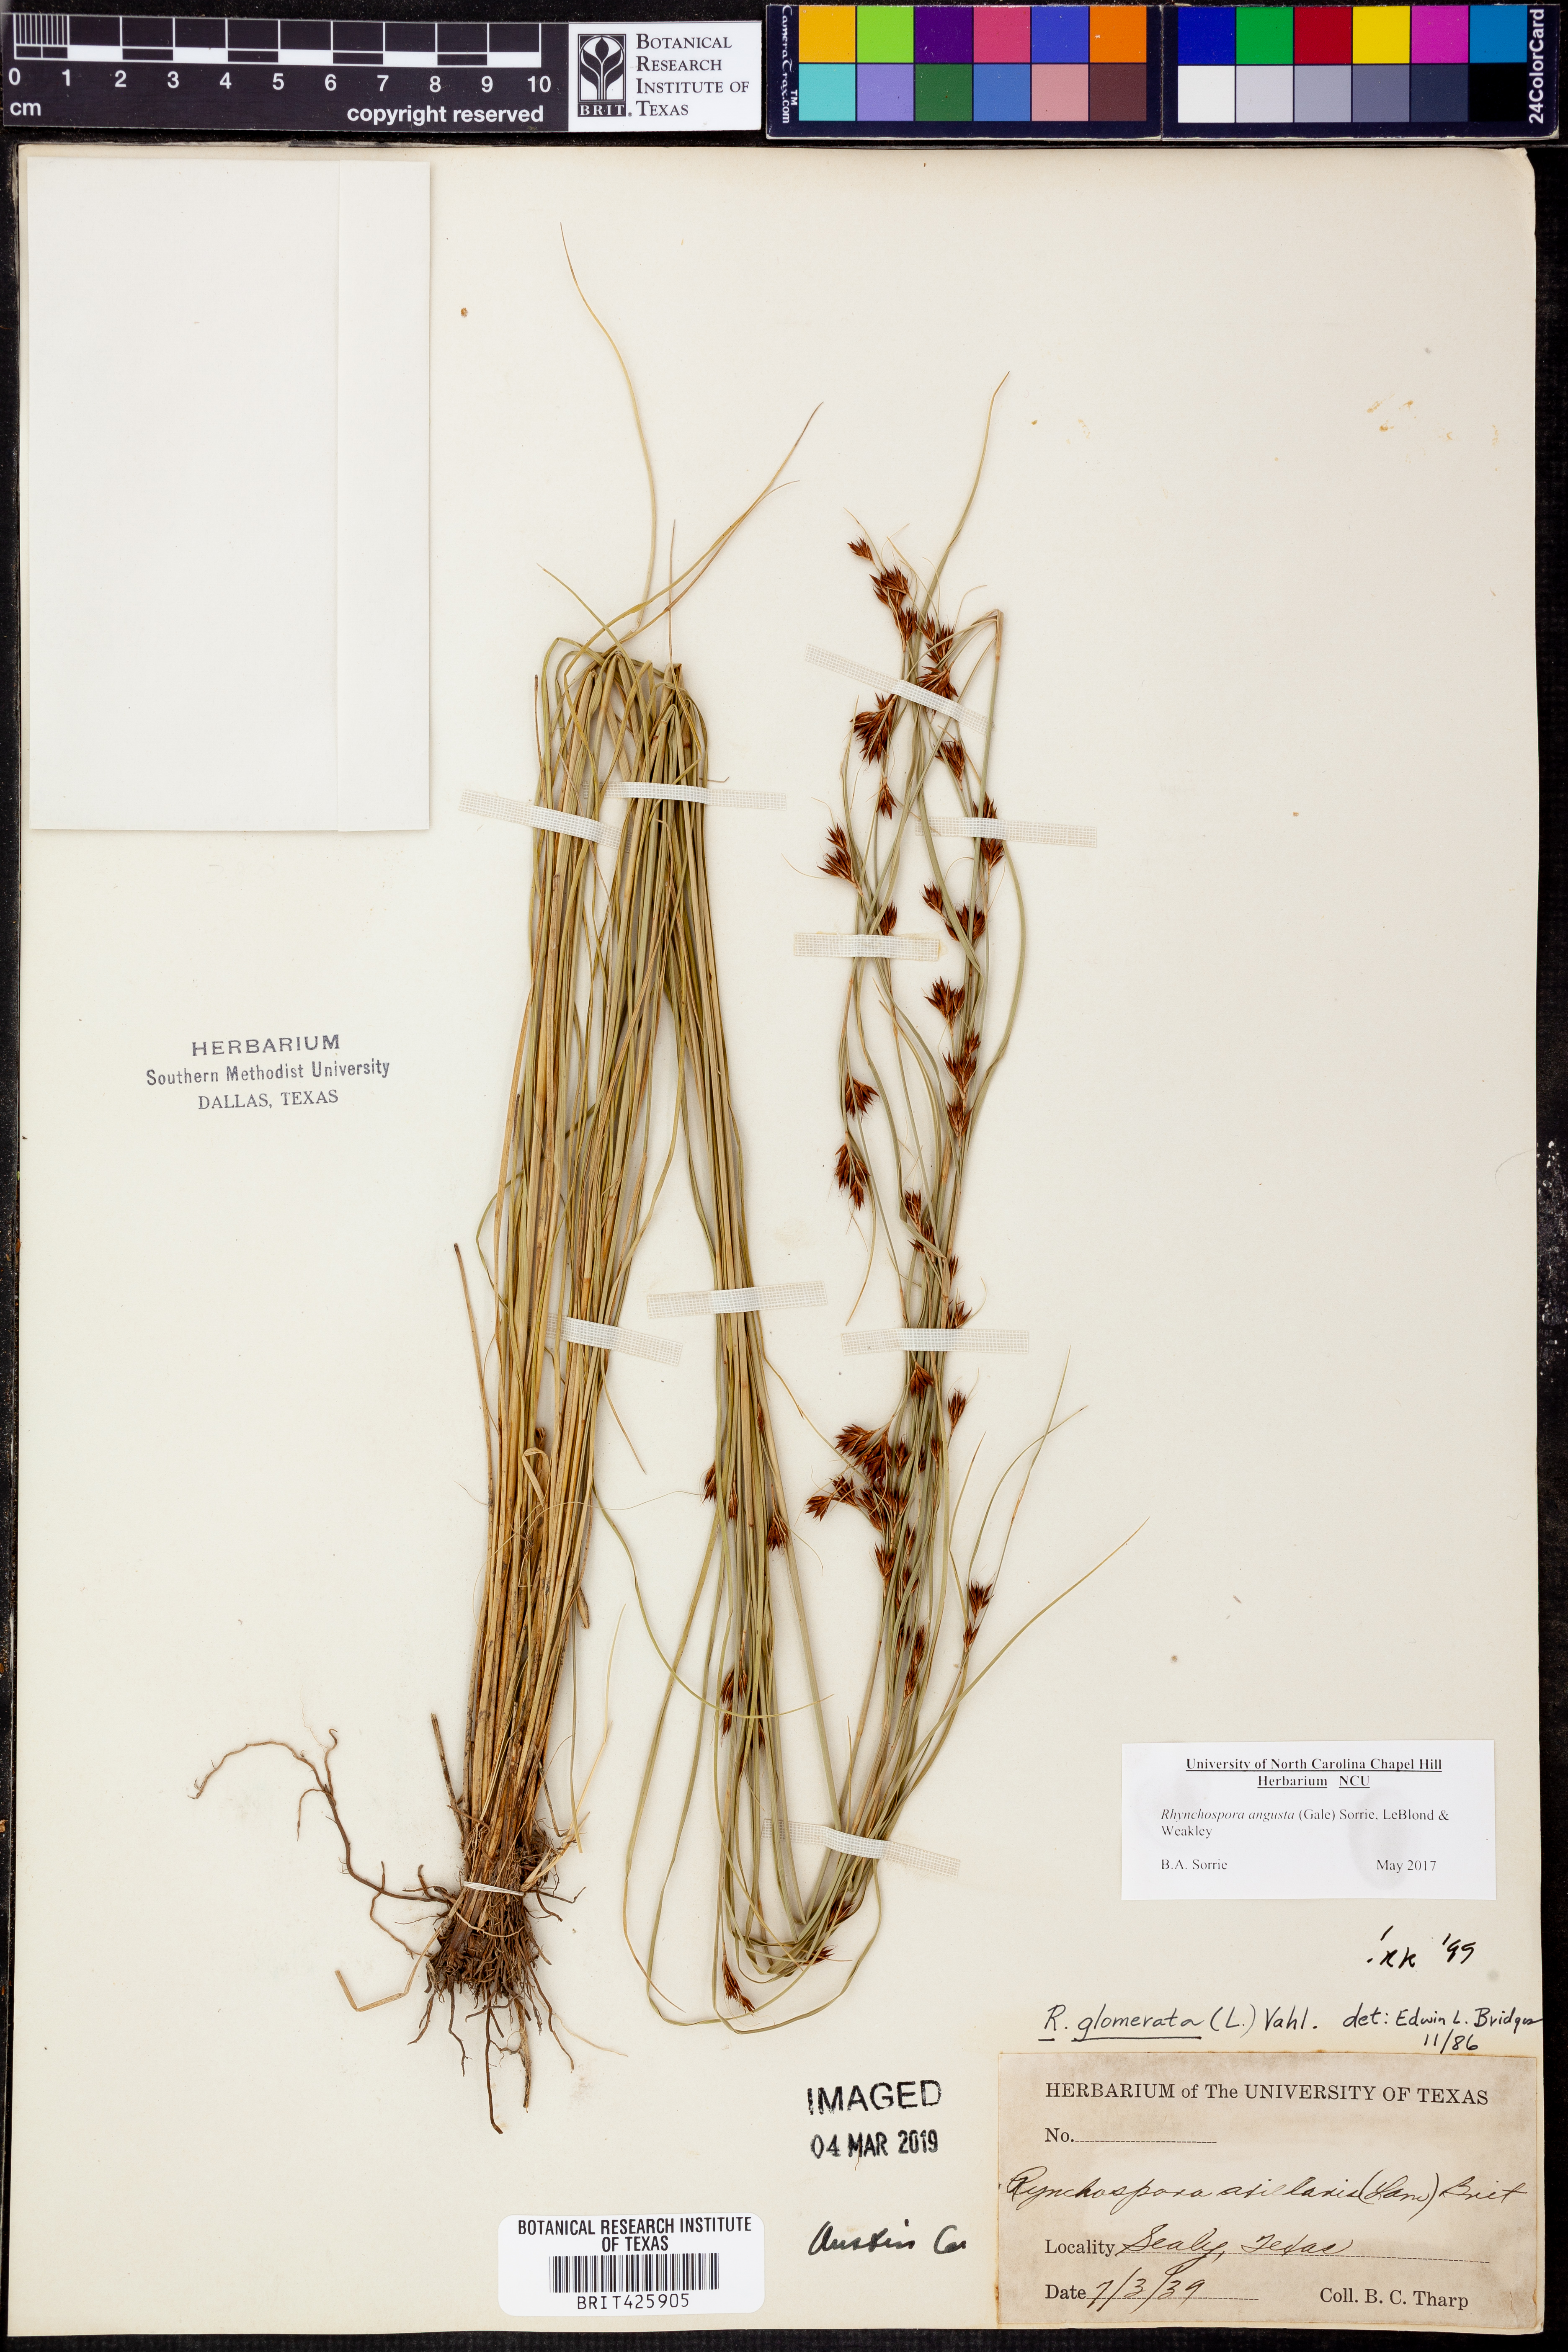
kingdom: Plantae
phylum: Tracheophyta
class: Liliopsida
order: Poales
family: Cyperaceae
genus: Rhynchospora
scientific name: Rhynchospora angusta
